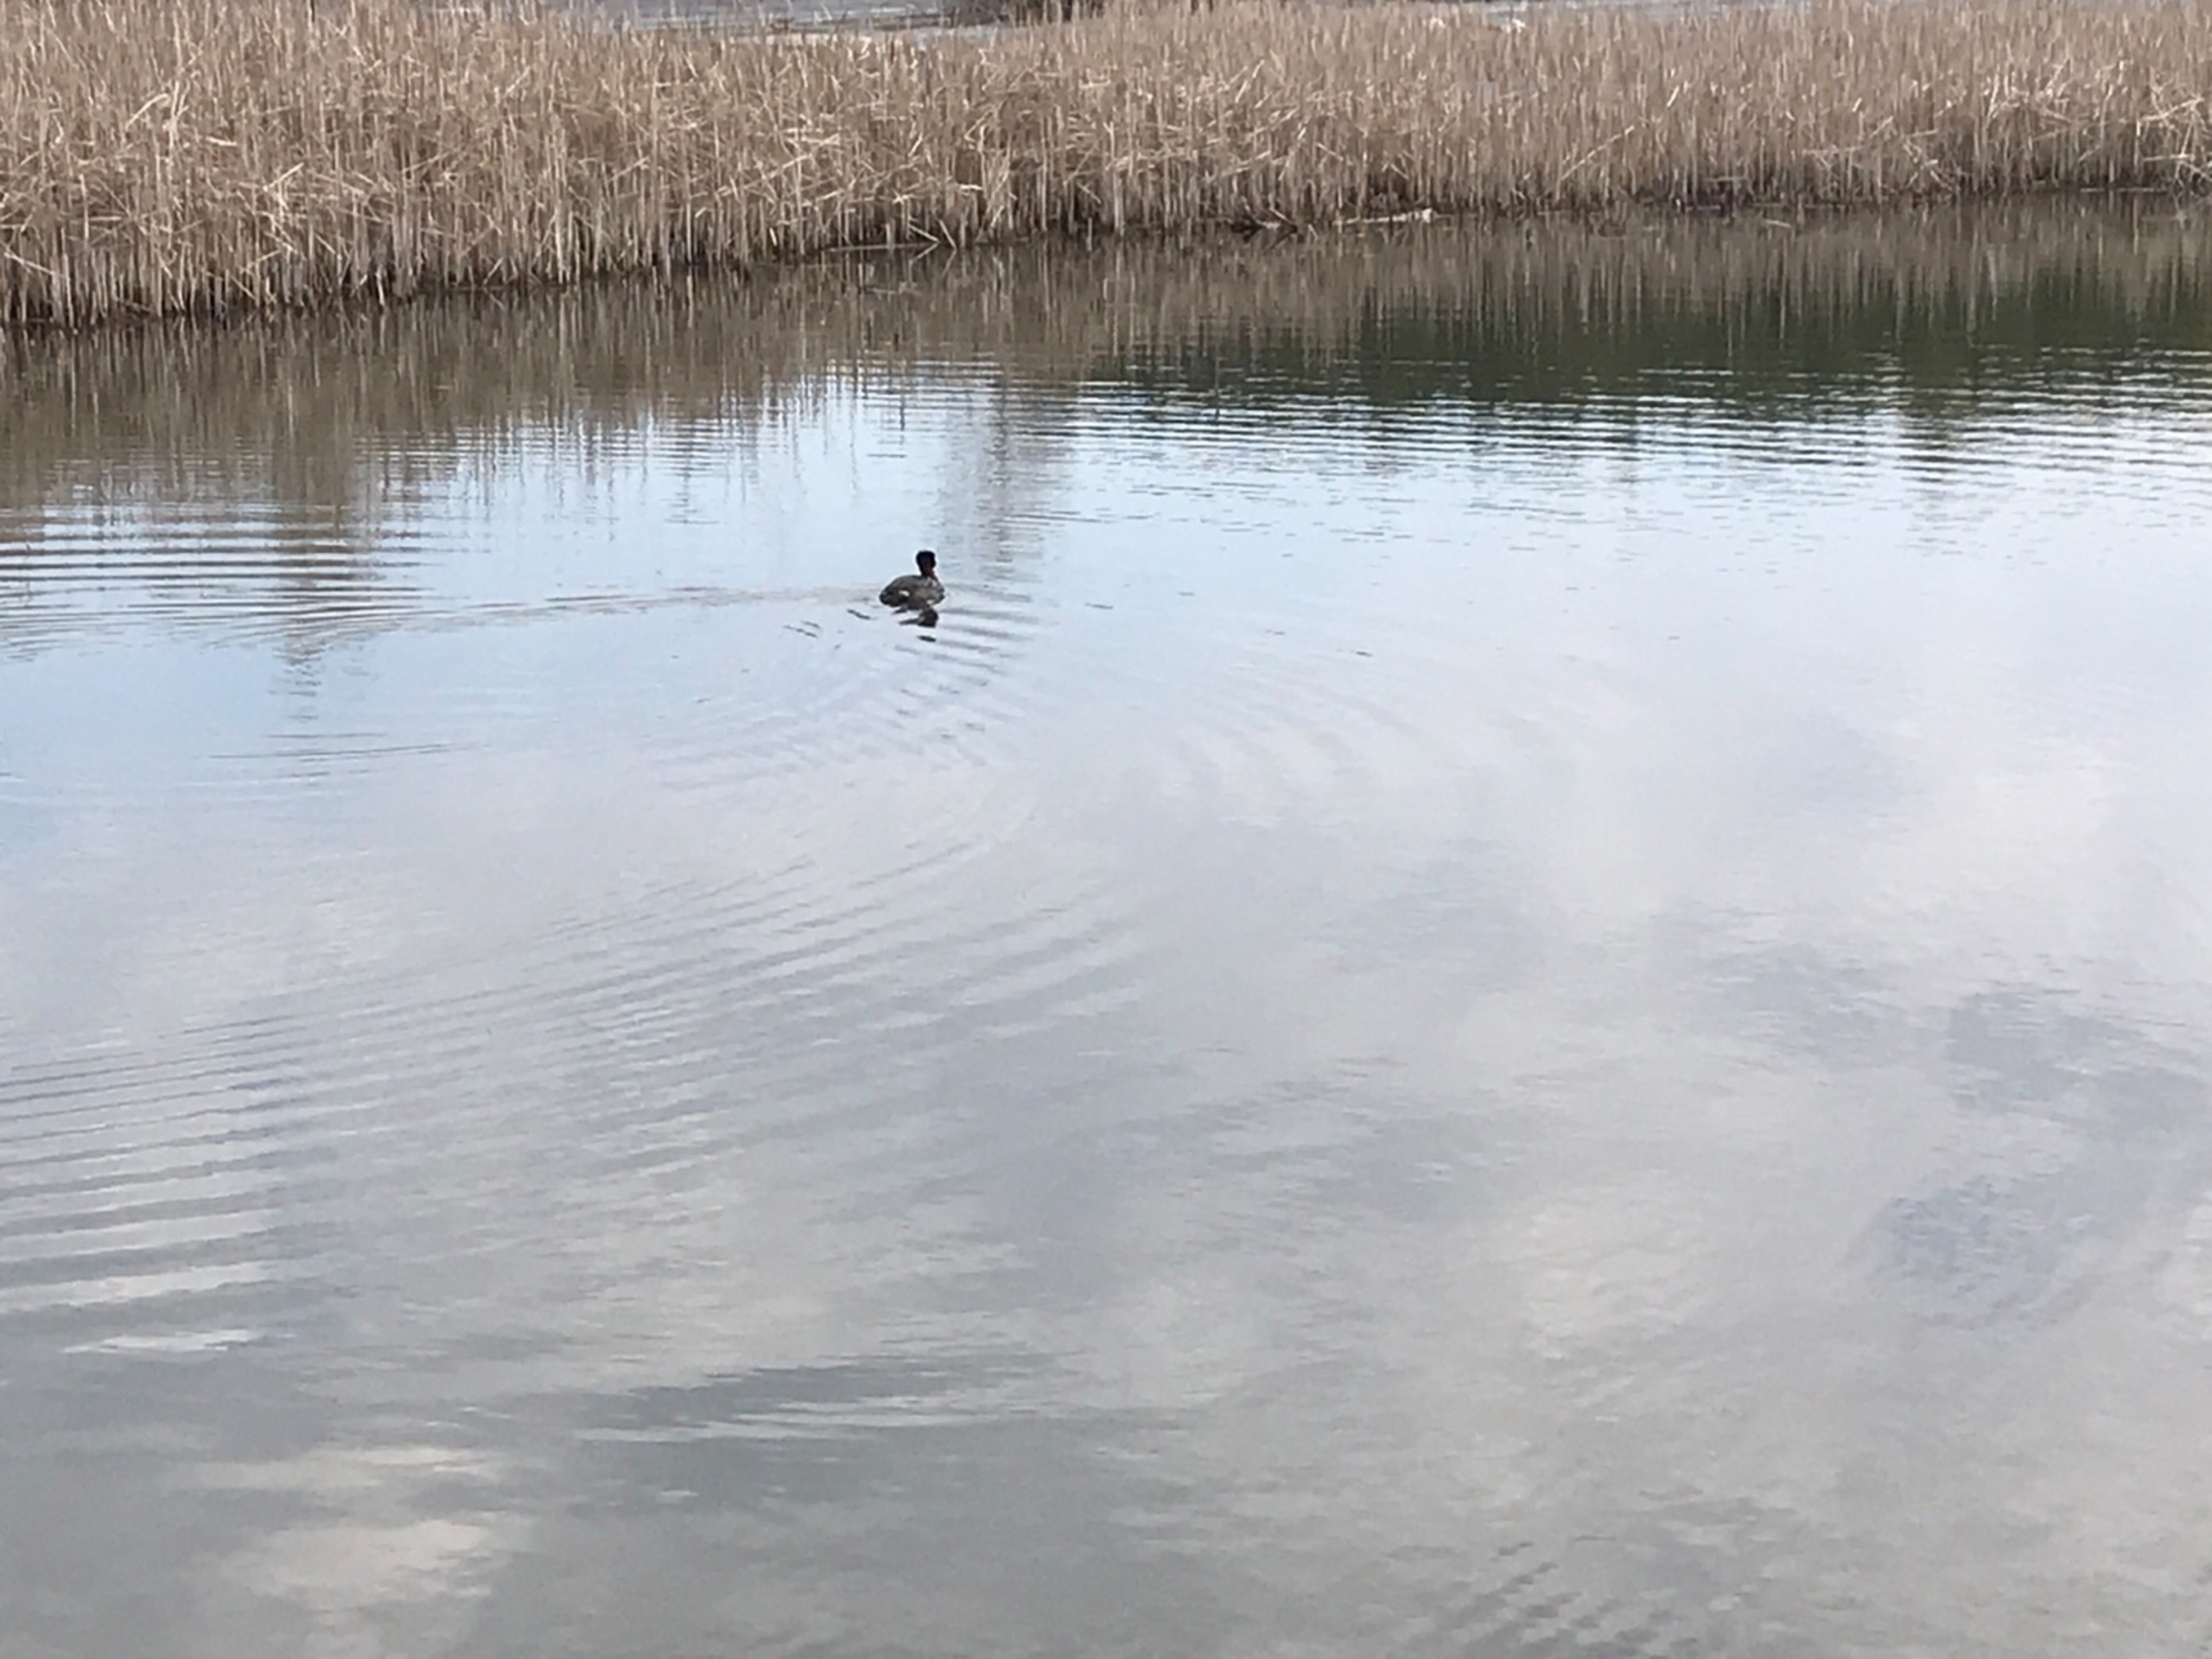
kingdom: Animalia
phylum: Chordata
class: Aves
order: Podicipediformes
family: Podicipedidae
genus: Podiceps
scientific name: Podiceps grisegena
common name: Gråstrubet lappedykker
